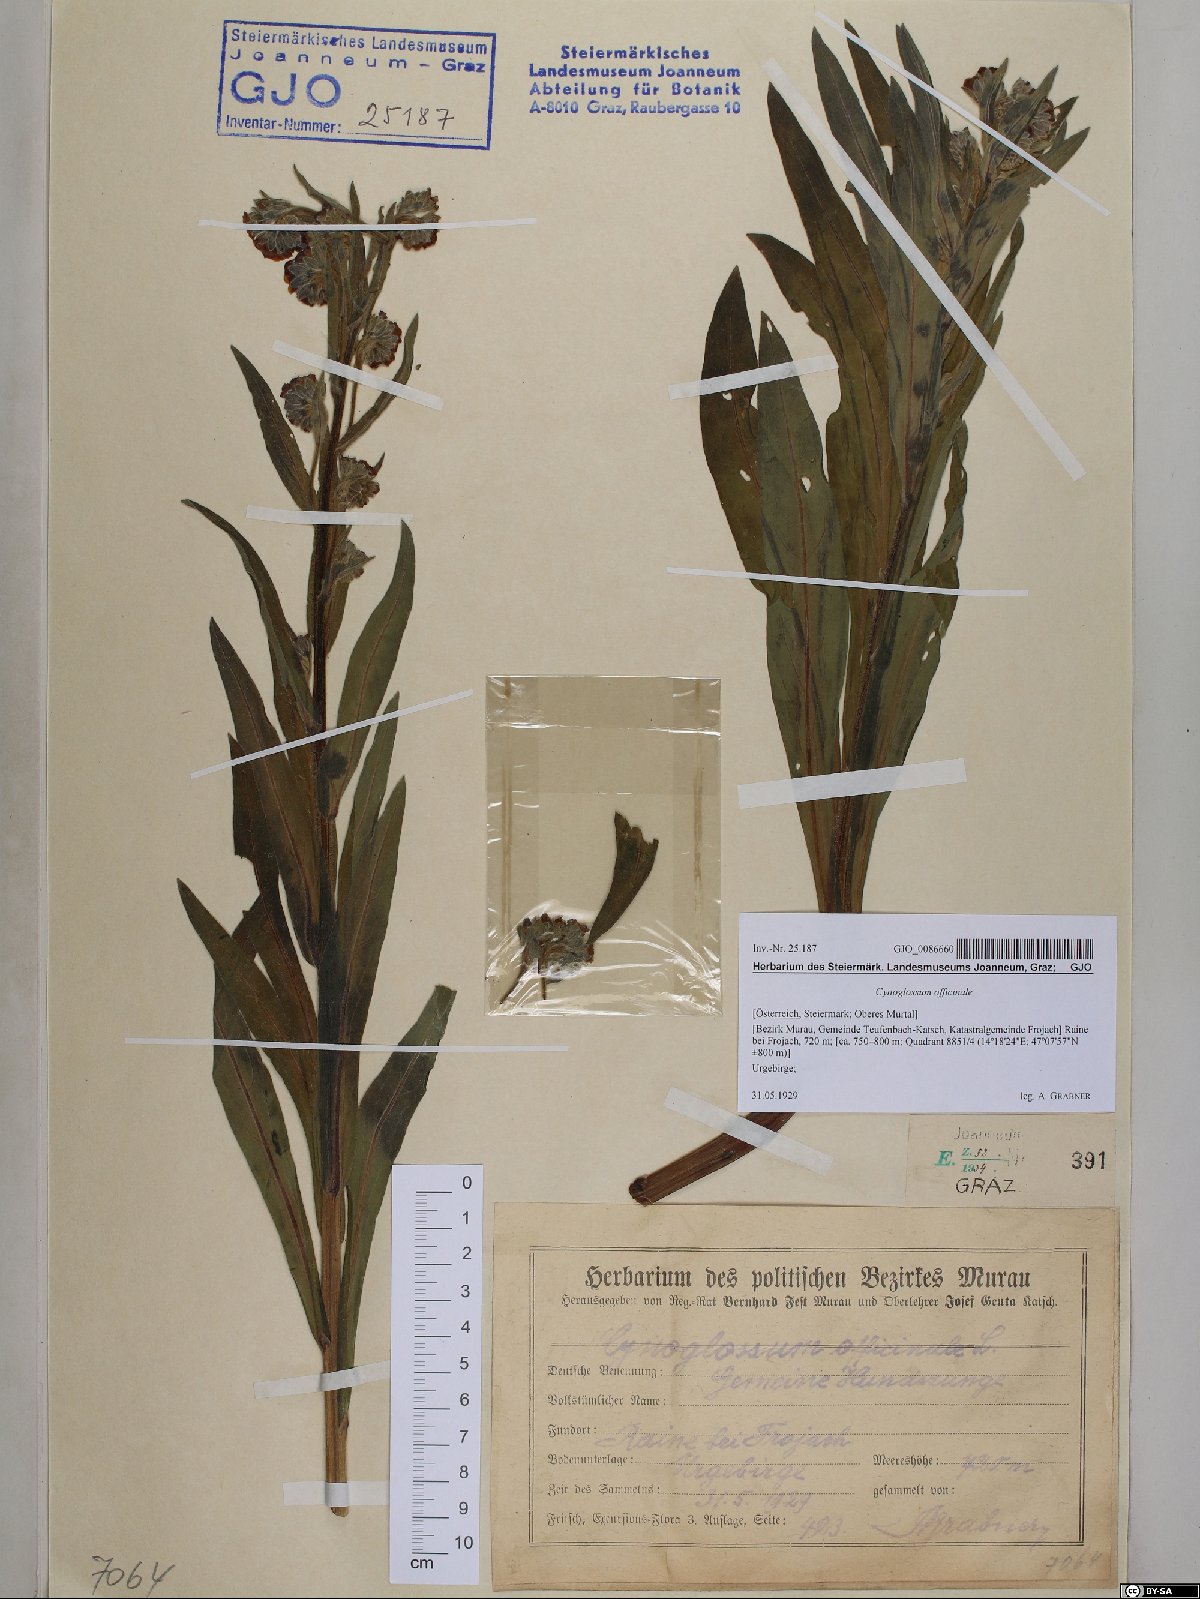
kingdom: Plantae
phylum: Tracheophyta
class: Magnoliopsida
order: Boraginales
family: Boraginaceae
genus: Cynoglossum
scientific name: Cynoglossum officinale
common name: Hound's-tongue
